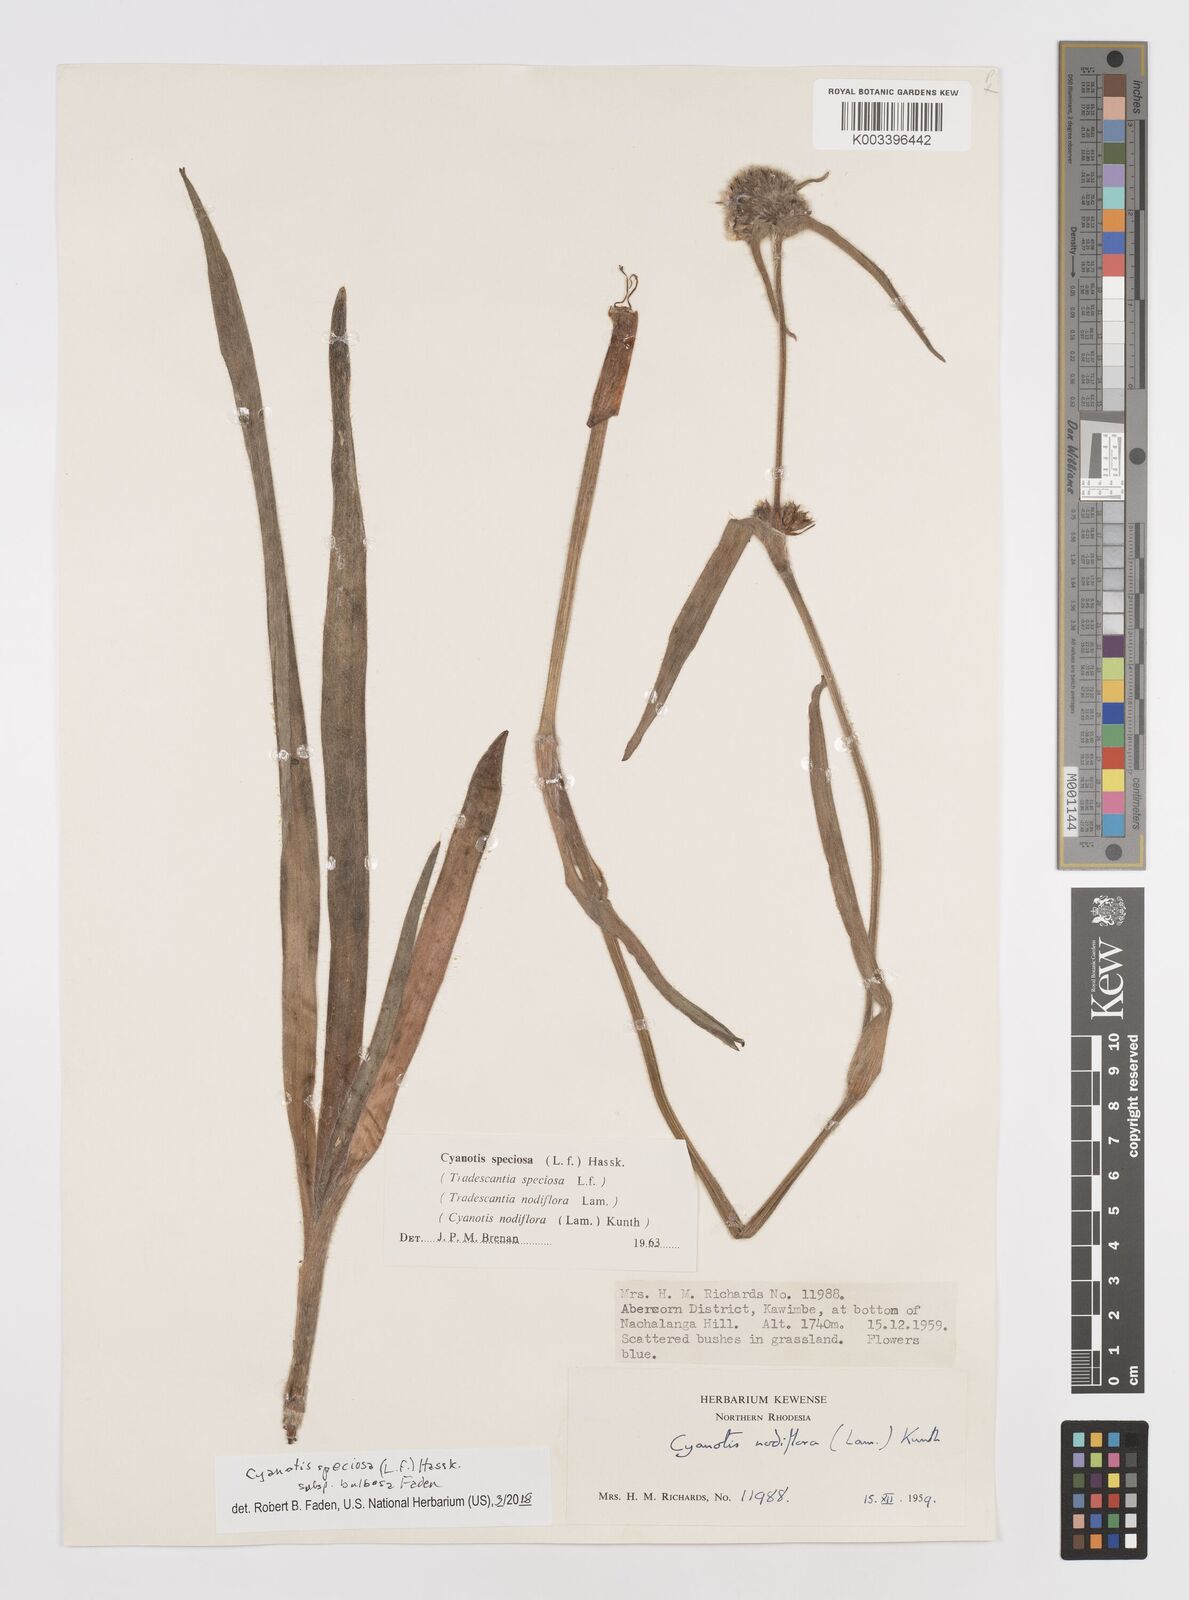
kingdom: Plantae
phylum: Tracheophyta
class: Liliopsida
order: Commelinales
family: Commelinaceae
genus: Cyanotis
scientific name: Cyanotis speciosa
